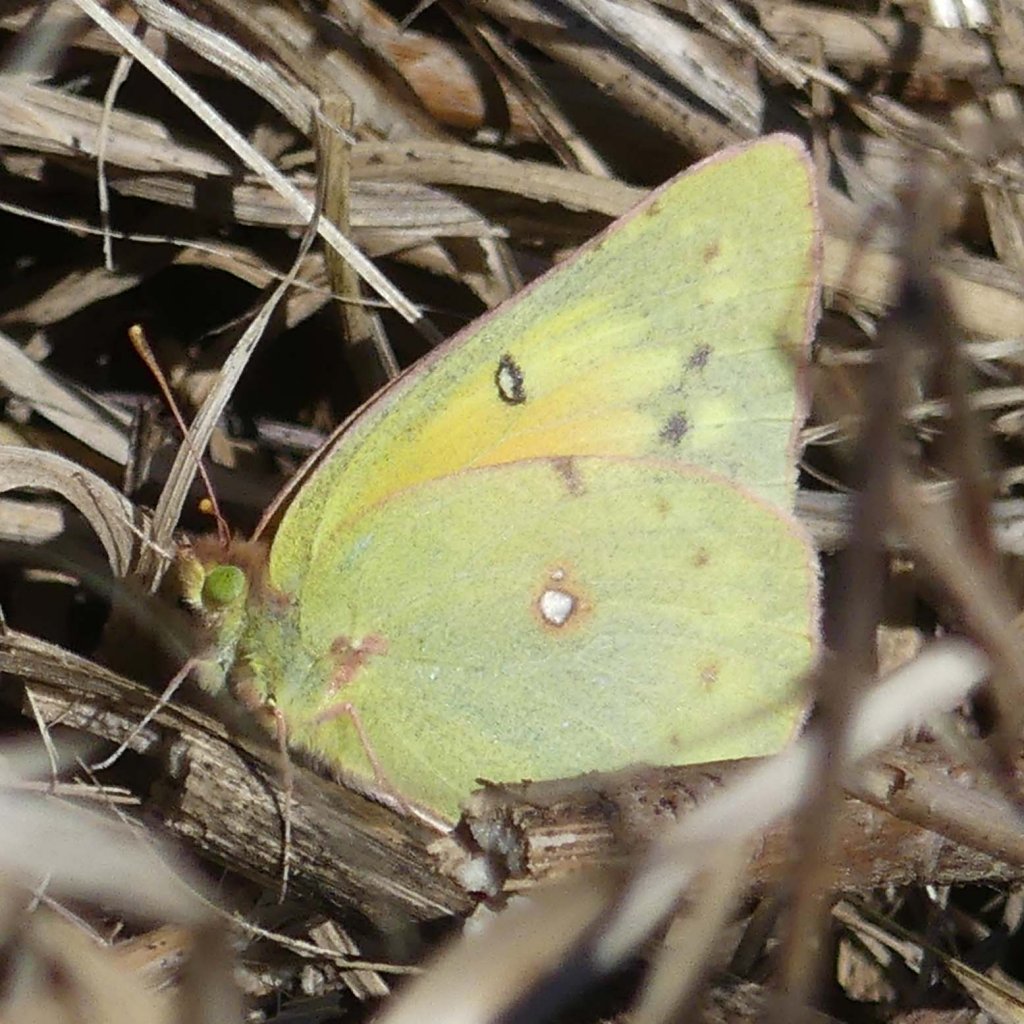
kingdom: Animalia
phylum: Arthropoda
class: Insecta
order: Lepidoptera
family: Pieridae
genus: Colias
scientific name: Colias eurytheme
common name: Orange Sulphur
